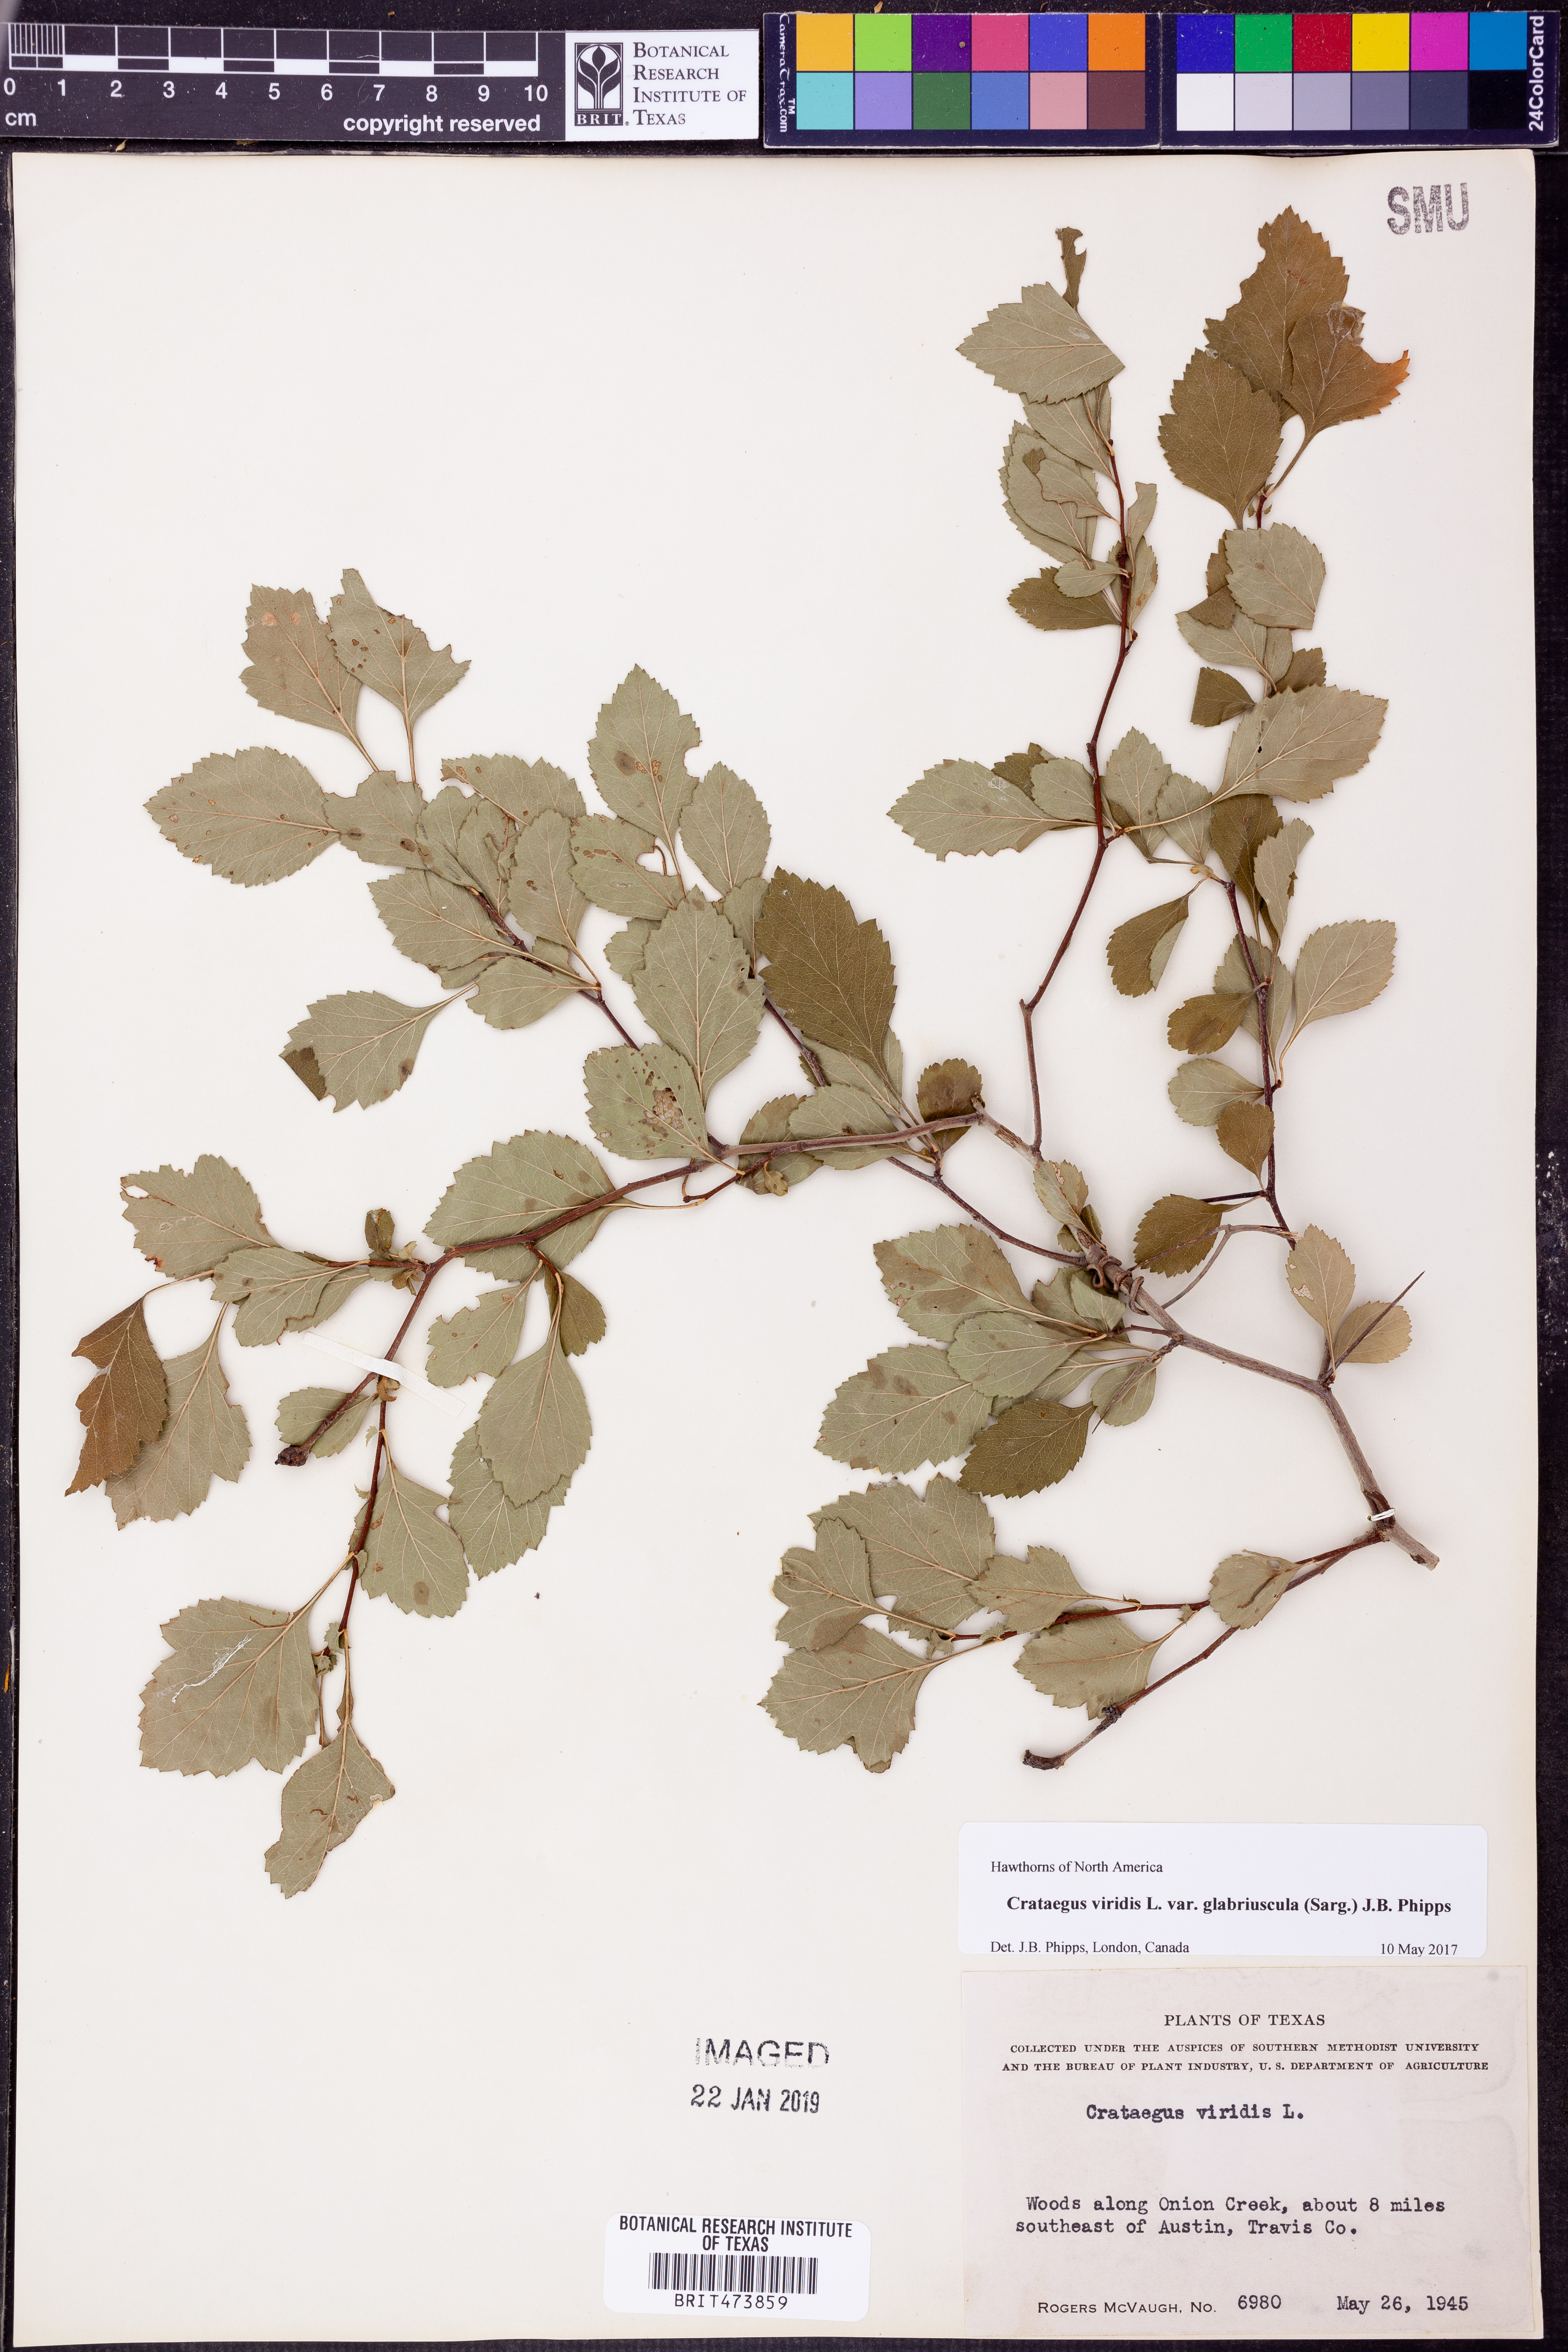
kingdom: Plantae
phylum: Tracheophyta
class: Magnoliopsida
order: Rosales
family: Rosaceae
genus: Crataegus
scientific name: Crataegus viridis
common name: Southernthorn
